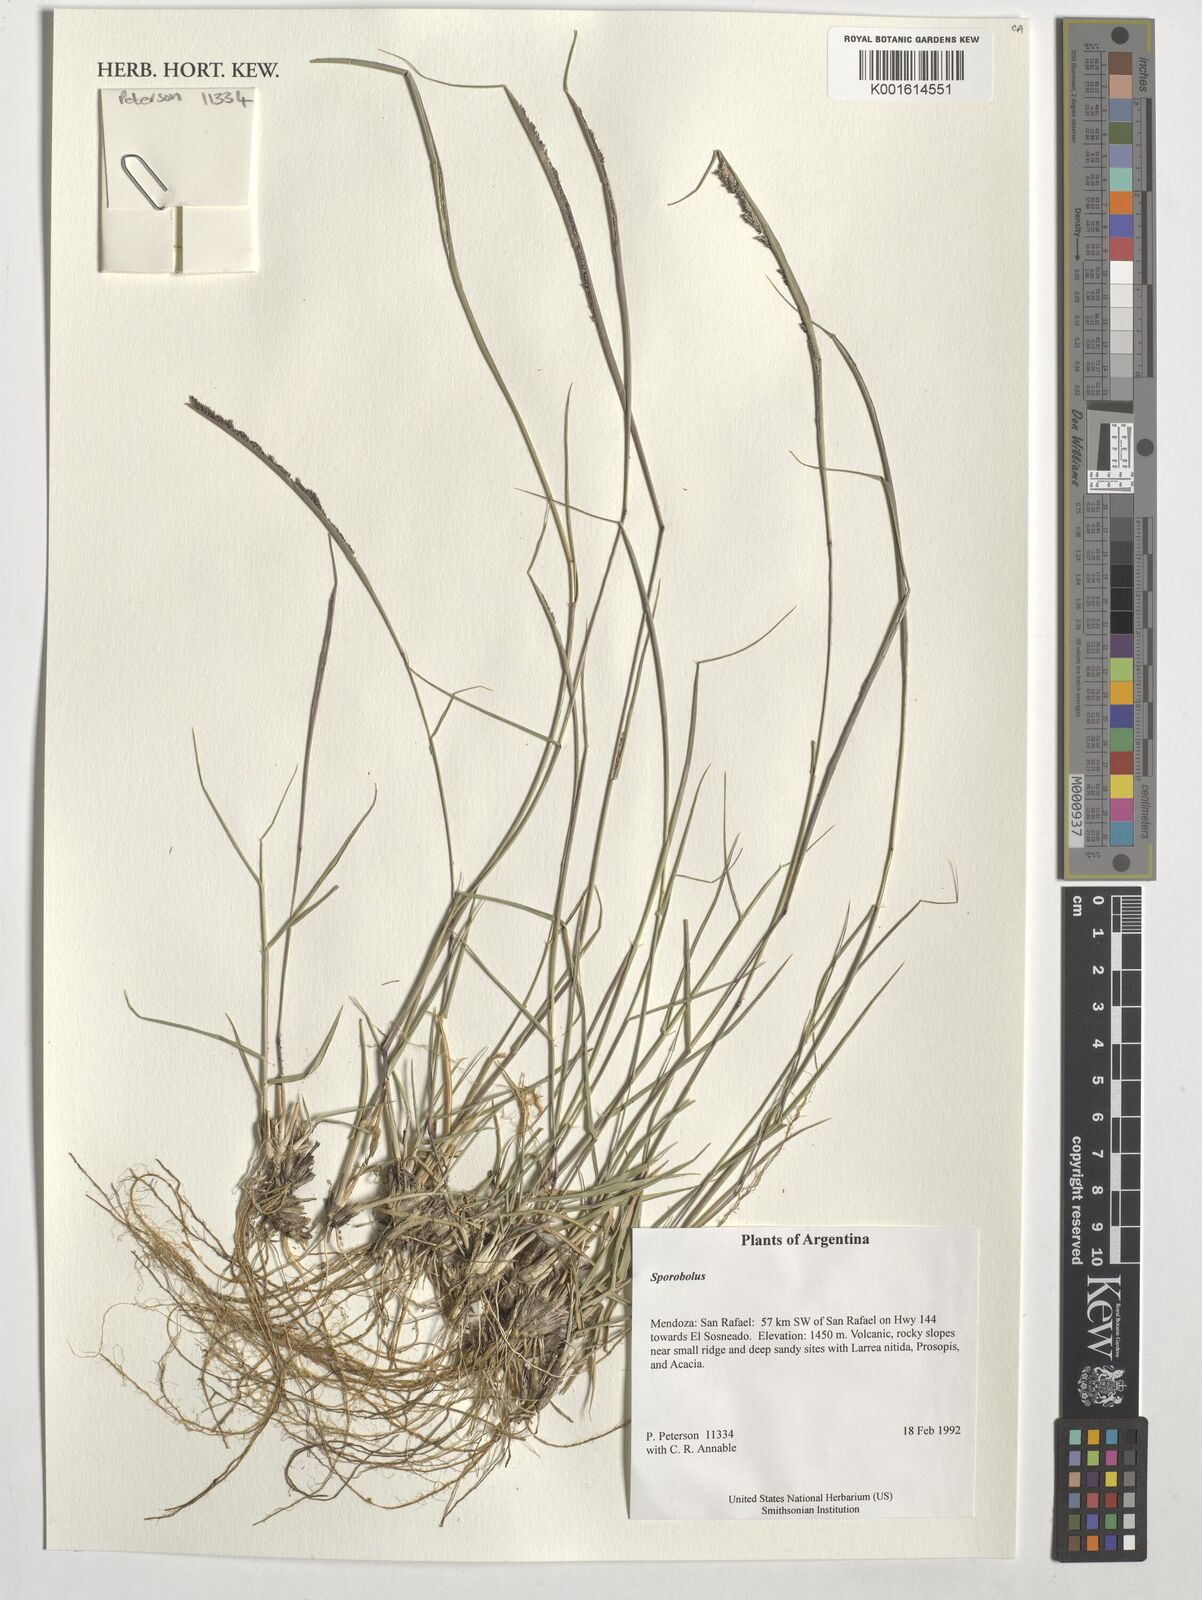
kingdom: Plantae
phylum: Tracheophyta
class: Liliopsida
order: Poales
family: Poaceae
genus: Sporobolus
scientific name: Sporobolus
